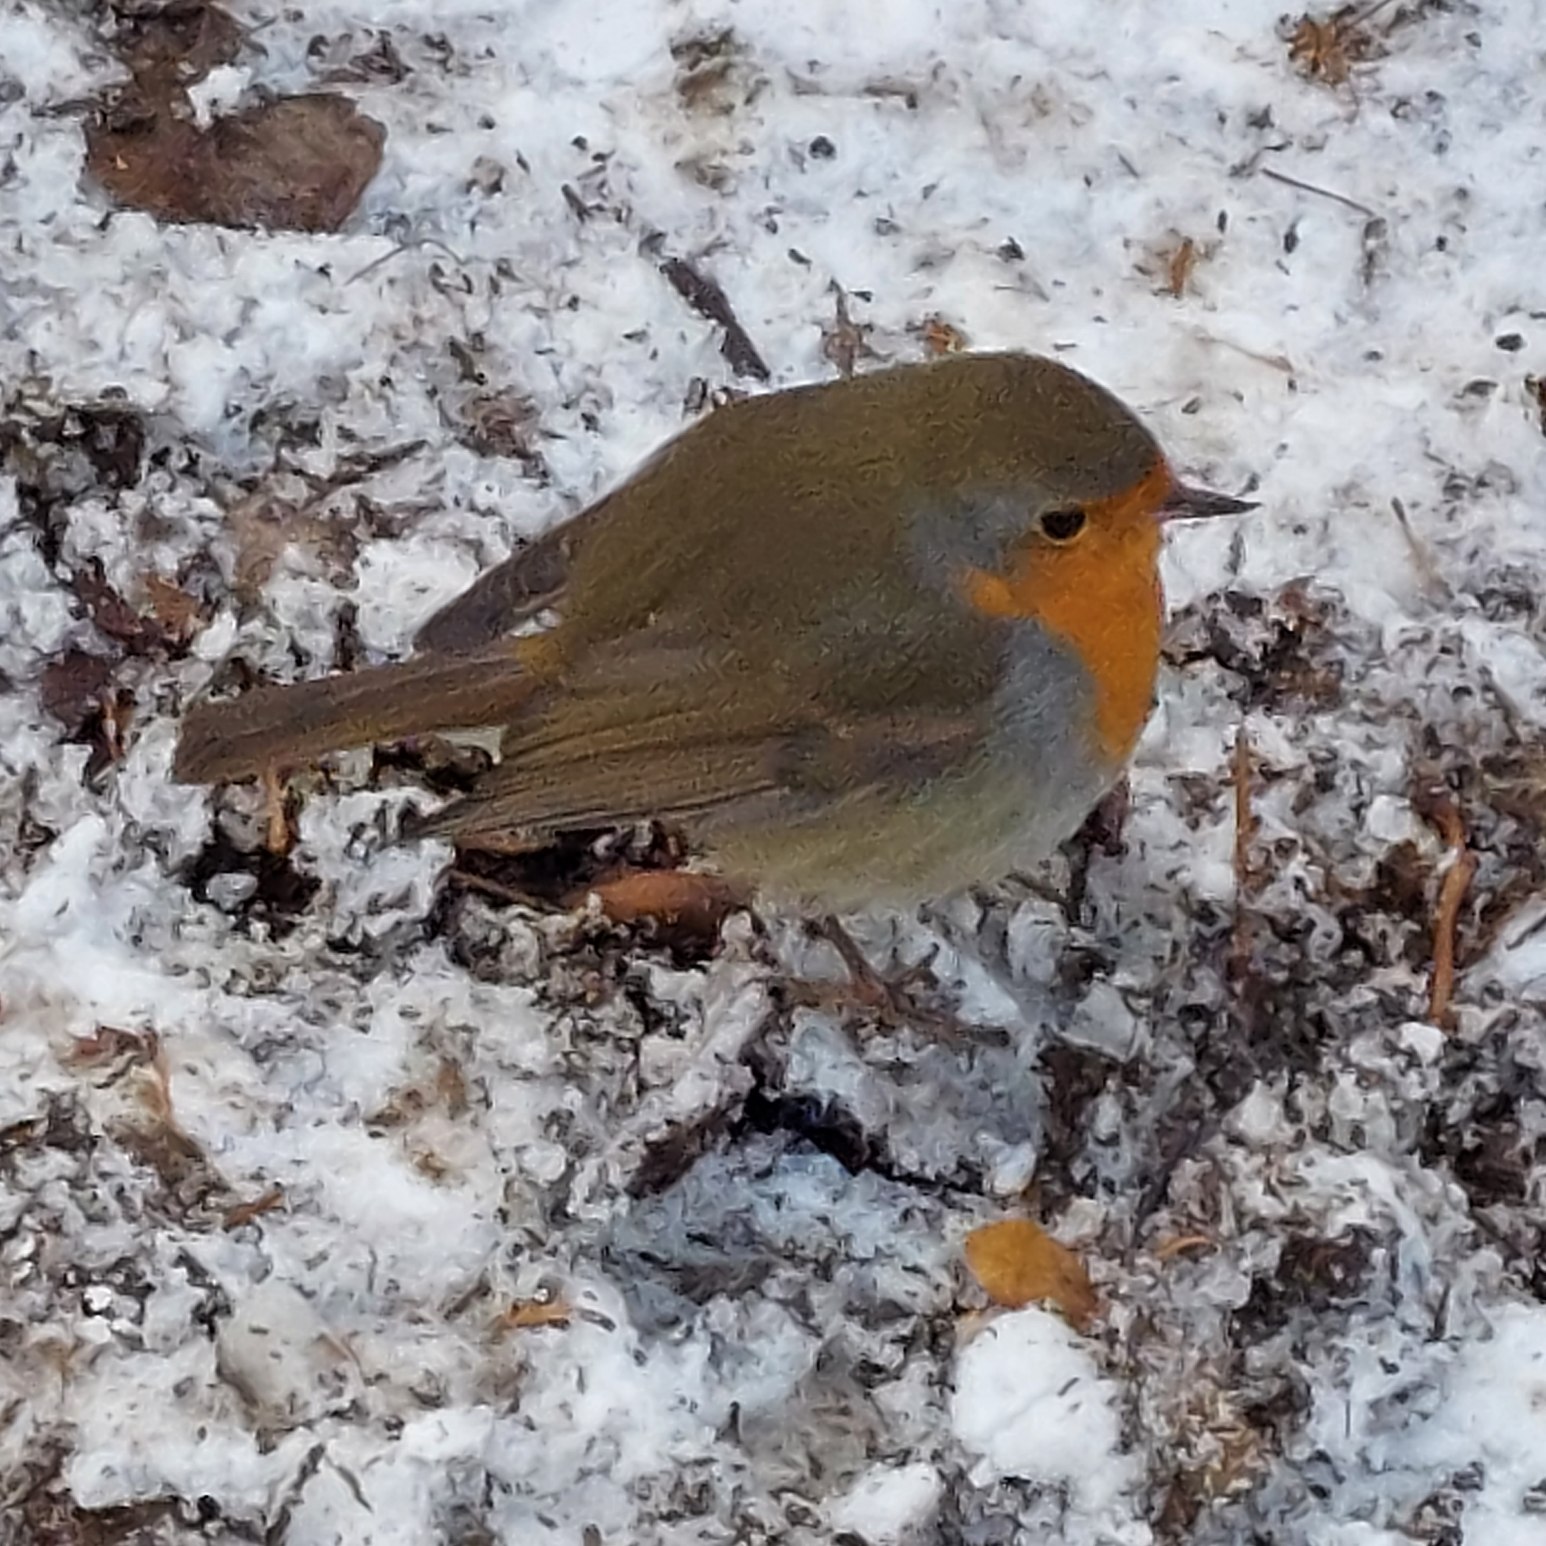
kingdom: Animalia
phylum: Chordata
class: Aves
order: Passeriformes
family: Muscicapidae
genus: Erithacus
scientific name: Erithacus rubecula
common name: Rødhals/rødkælk
